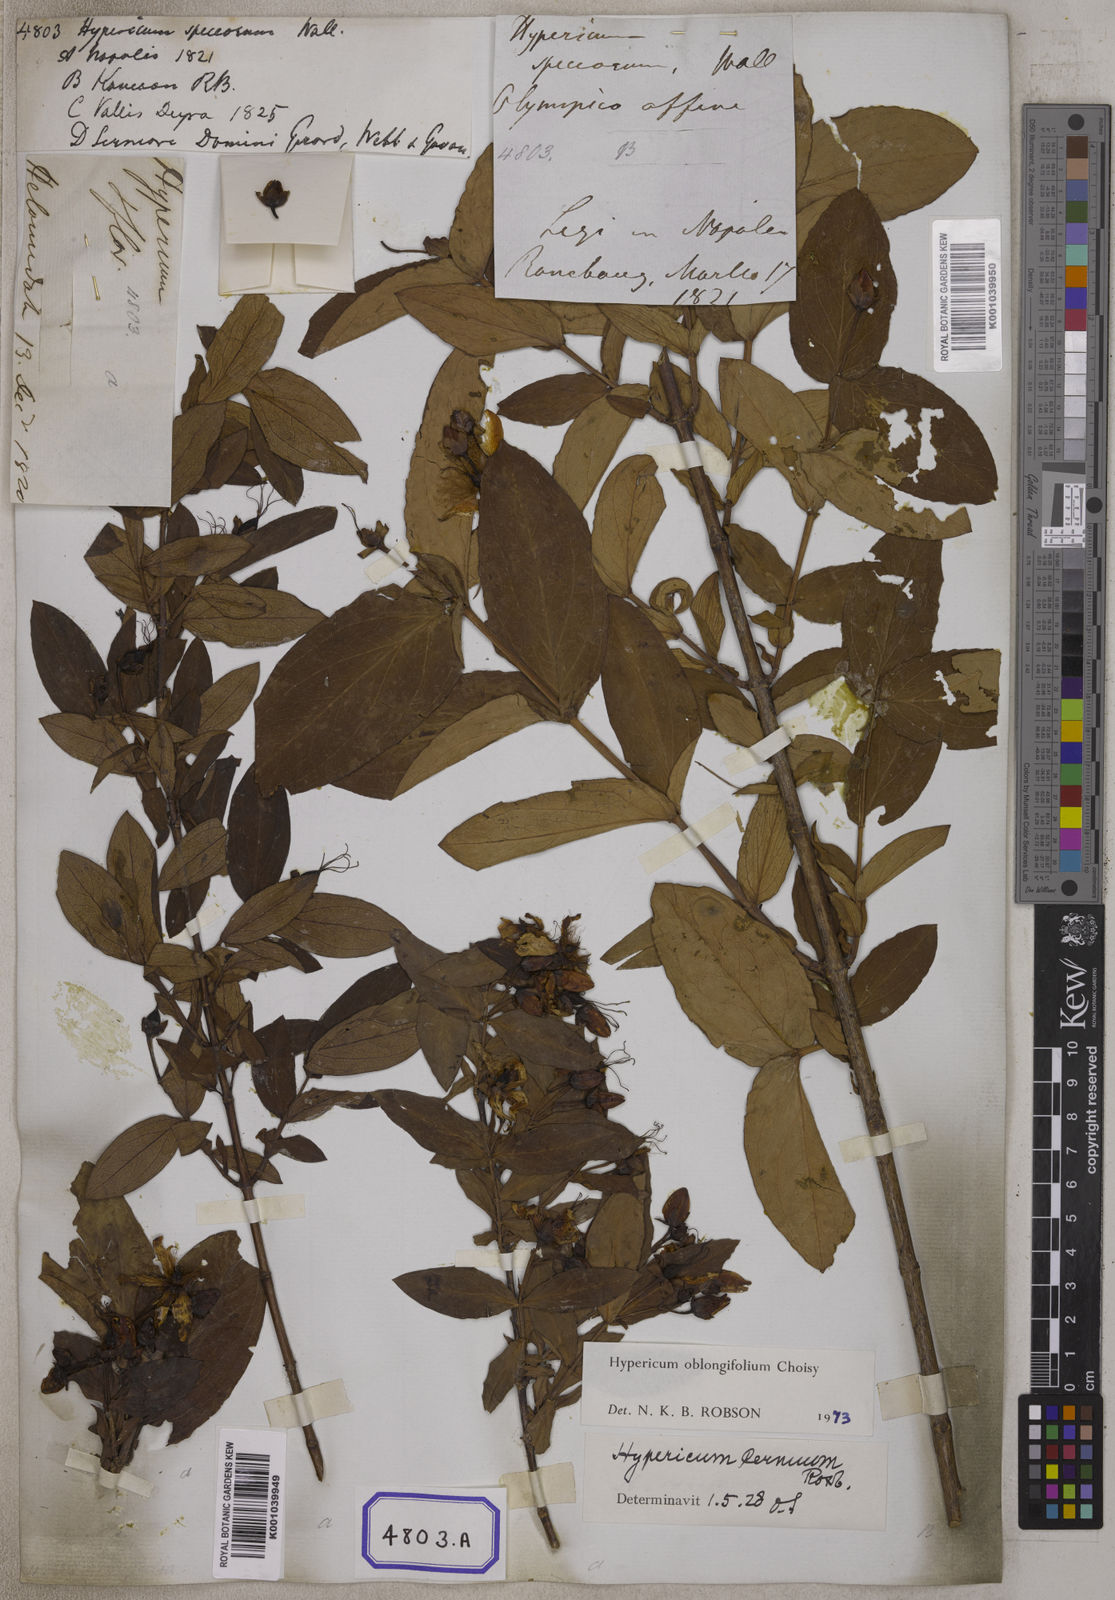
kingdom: Plantae
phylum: Tracheophyta
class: Magnoliopsida
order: Malpighiales
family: Hypericaceae
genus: Hypericum
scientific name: Hypericum oblongifolium
